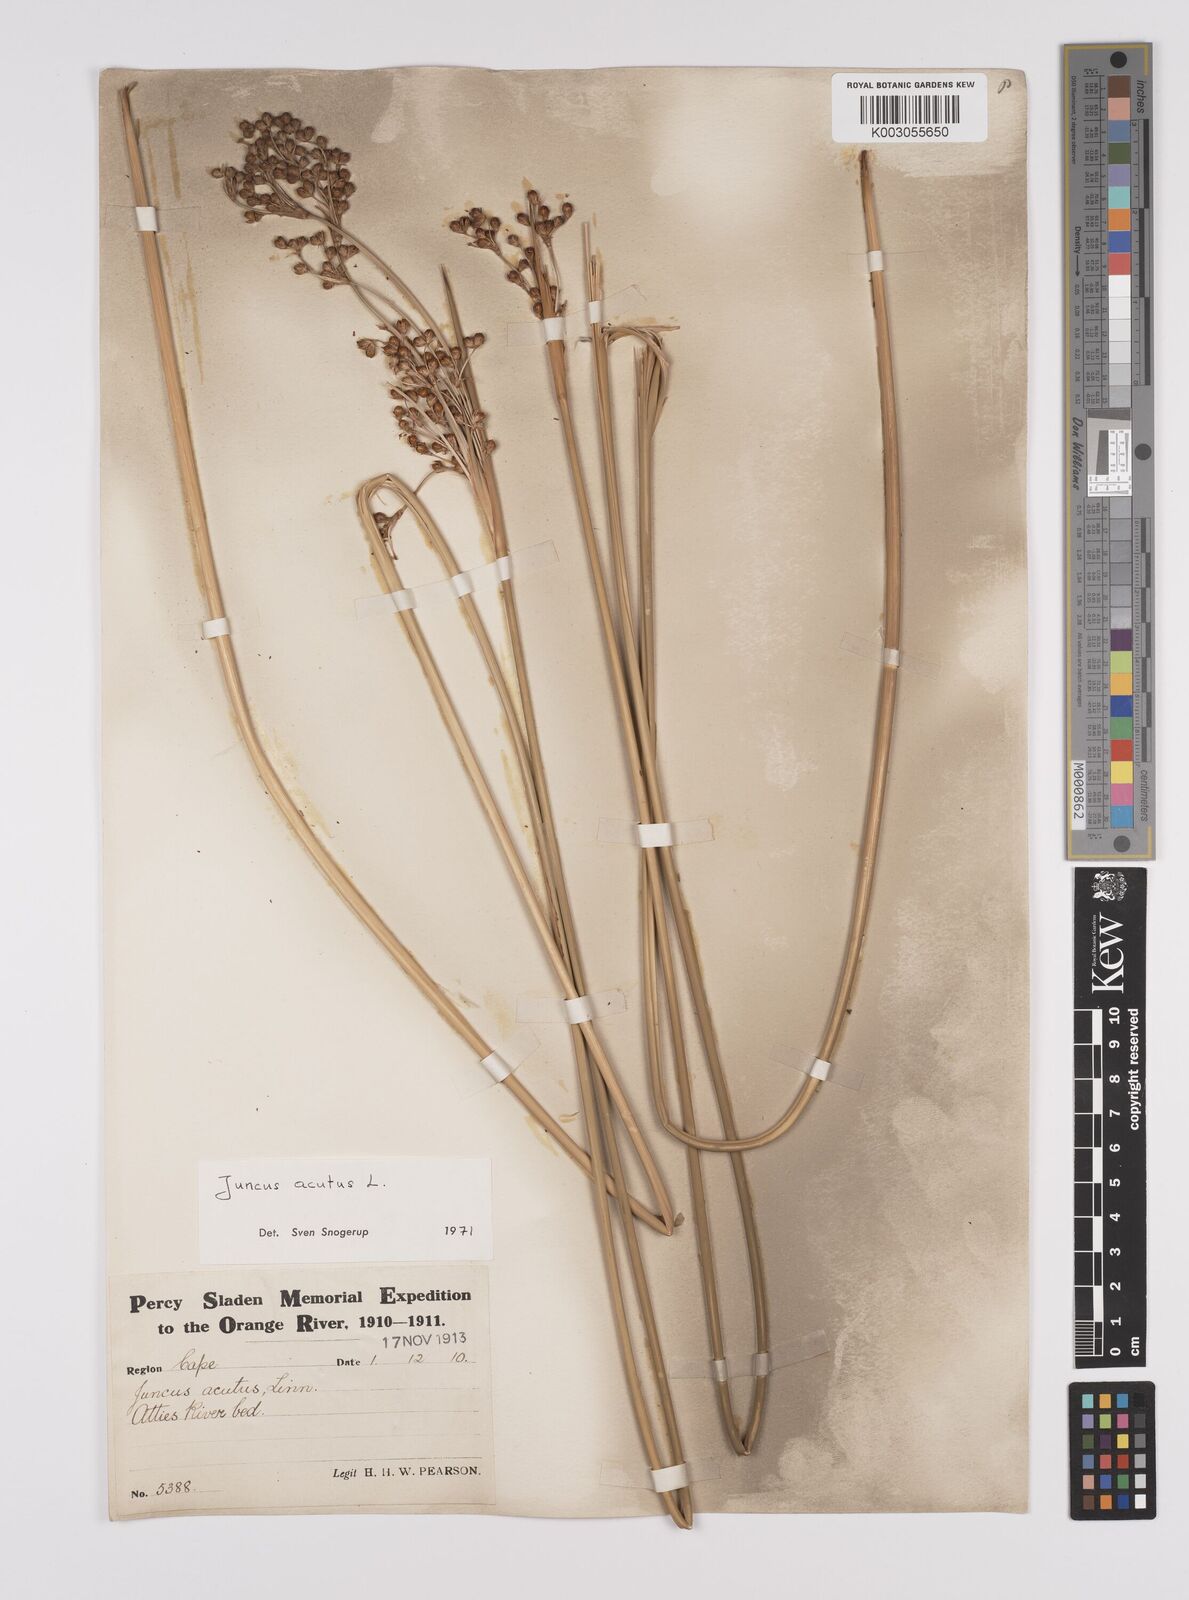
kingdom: Plantae
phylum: Tracheophyta
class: Liliopsida
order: Poales
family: Juncaceae
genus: Juncus
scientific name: Juncus acutus
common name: Sharp rush
